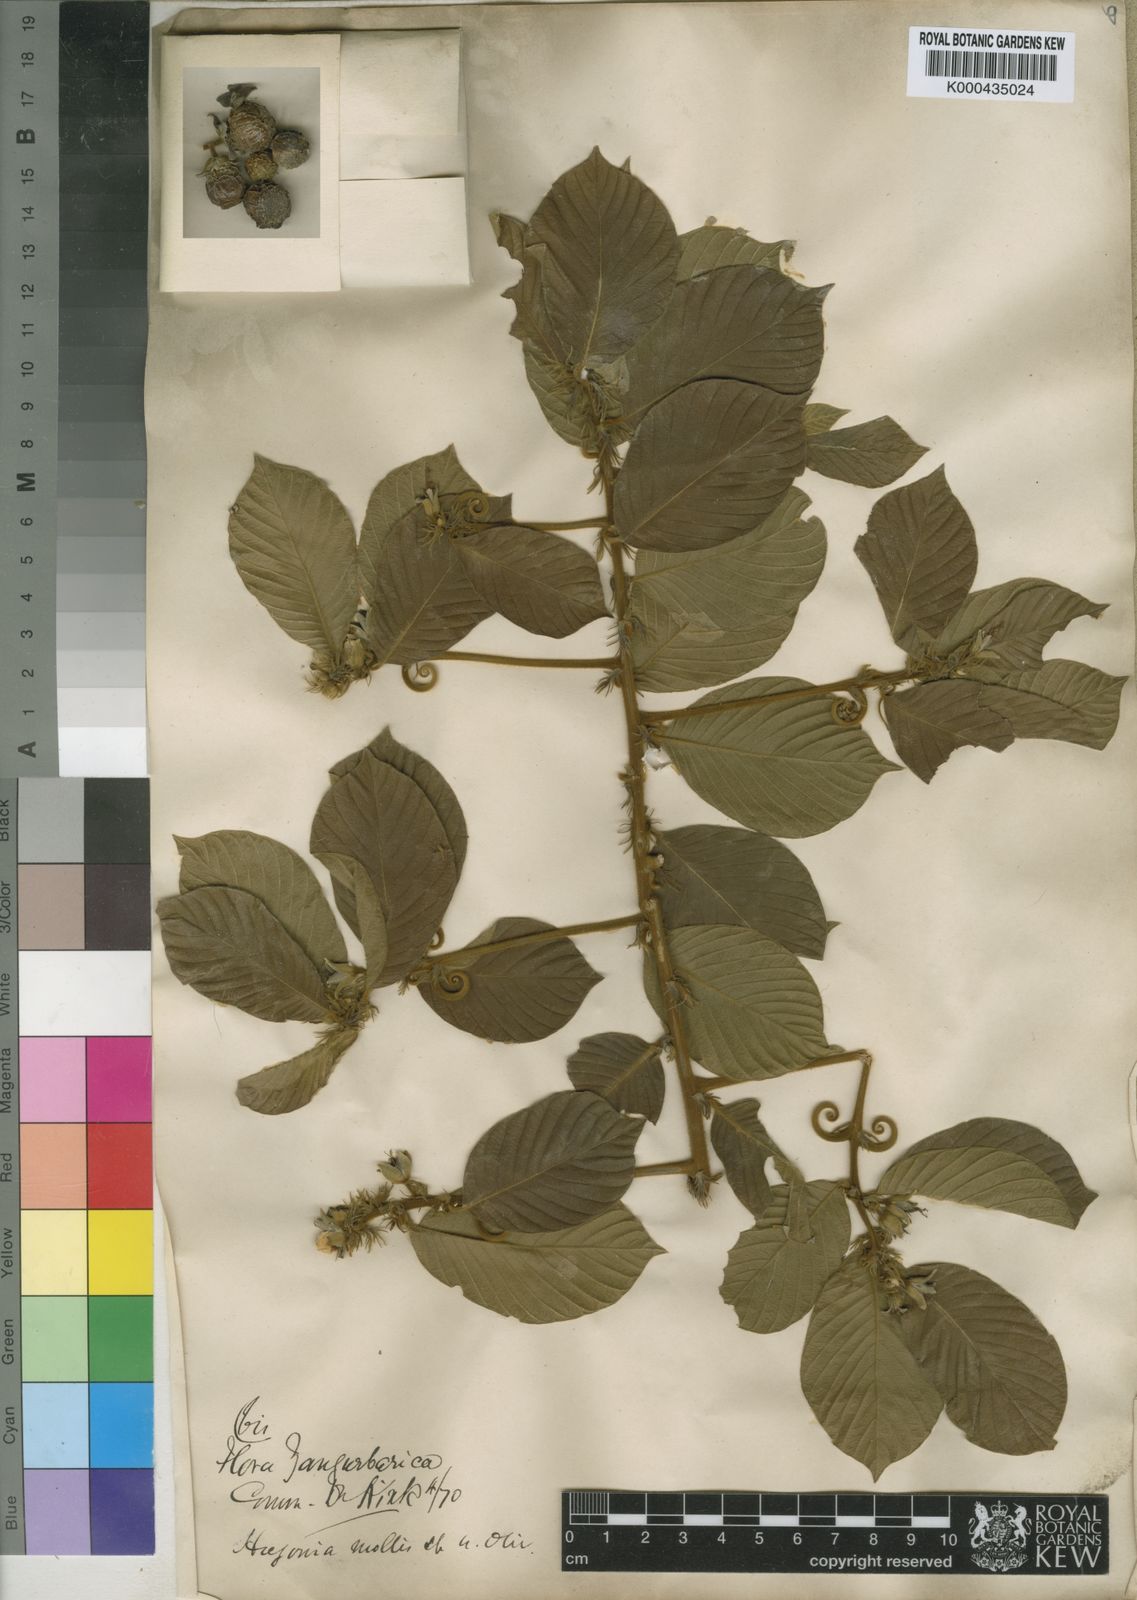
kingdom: Plantae
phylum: Tracheophyta
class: Magnoliopsida
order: Malpighiales
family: Linaceae
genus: Hugonia
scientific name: Hugonia castaneifolia
